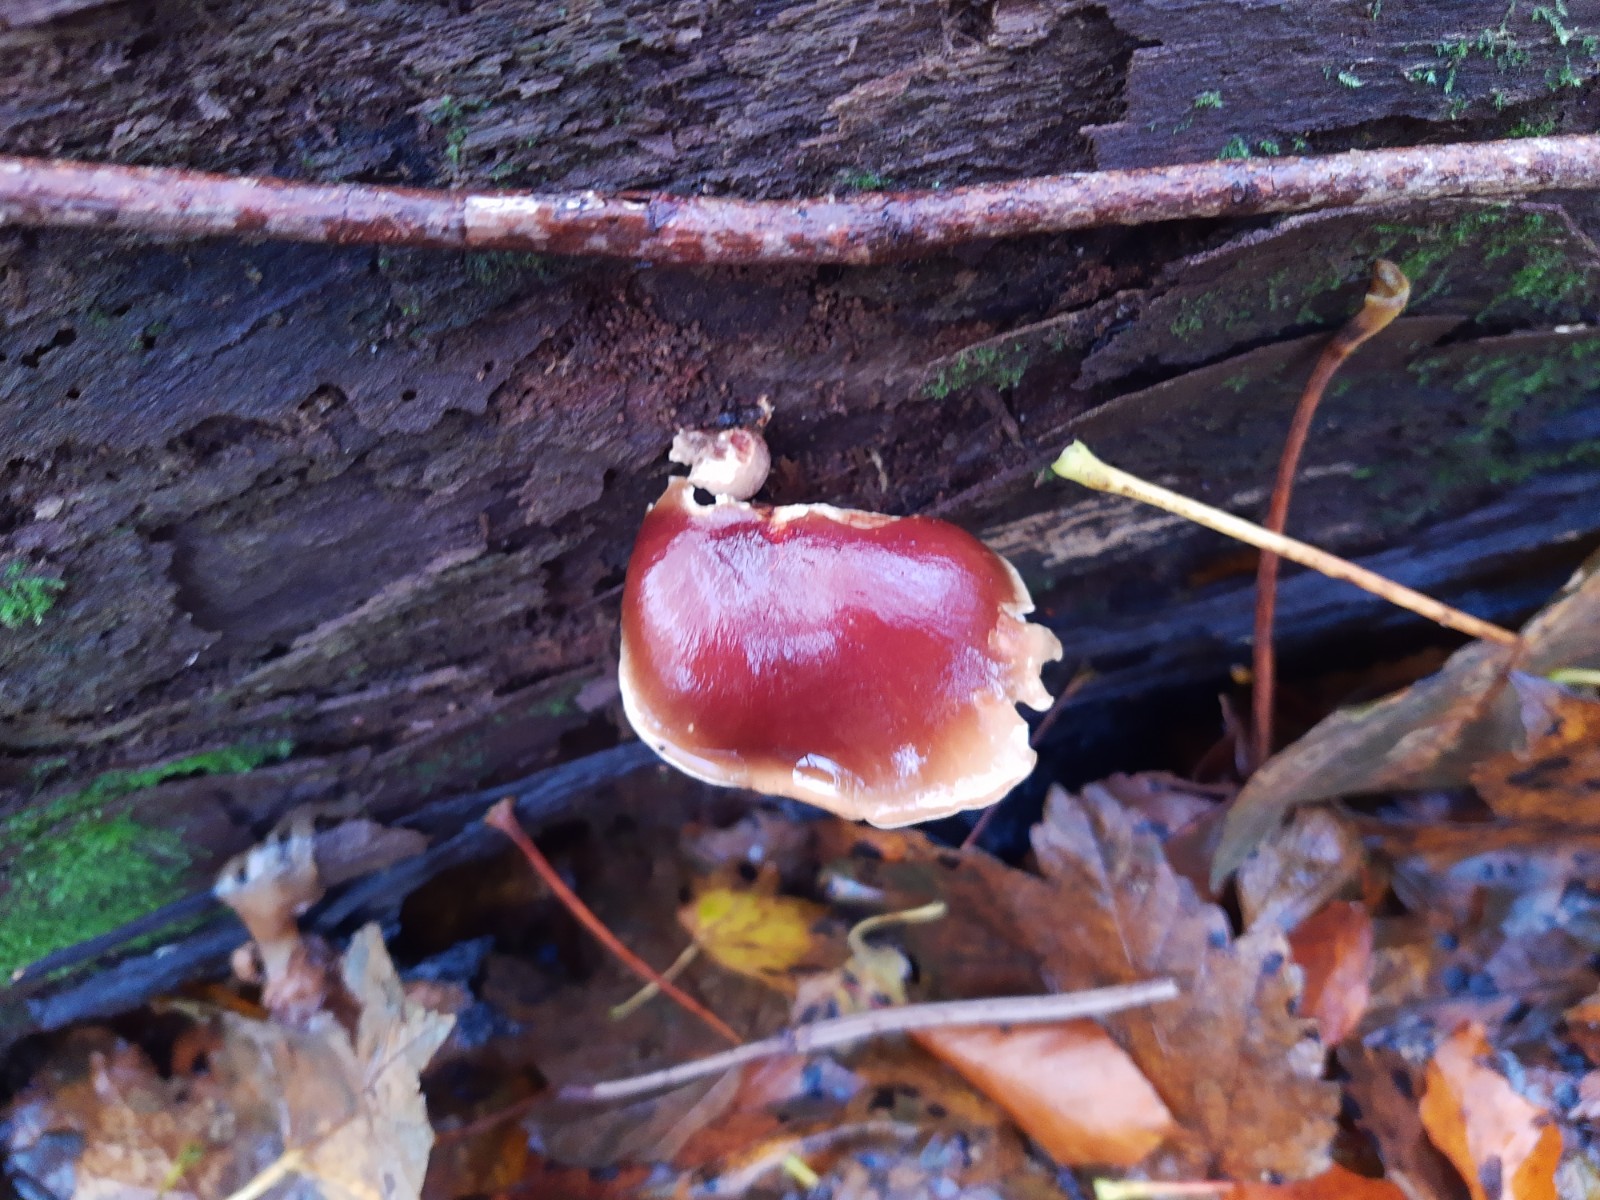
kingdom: Fungi
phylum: Basidiomycota
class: Agaricomycetes
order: Polyporales
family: Polyporaceae
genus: Picipes
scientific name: Picipes badius
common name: kastaniebrun stilkporesvamp
